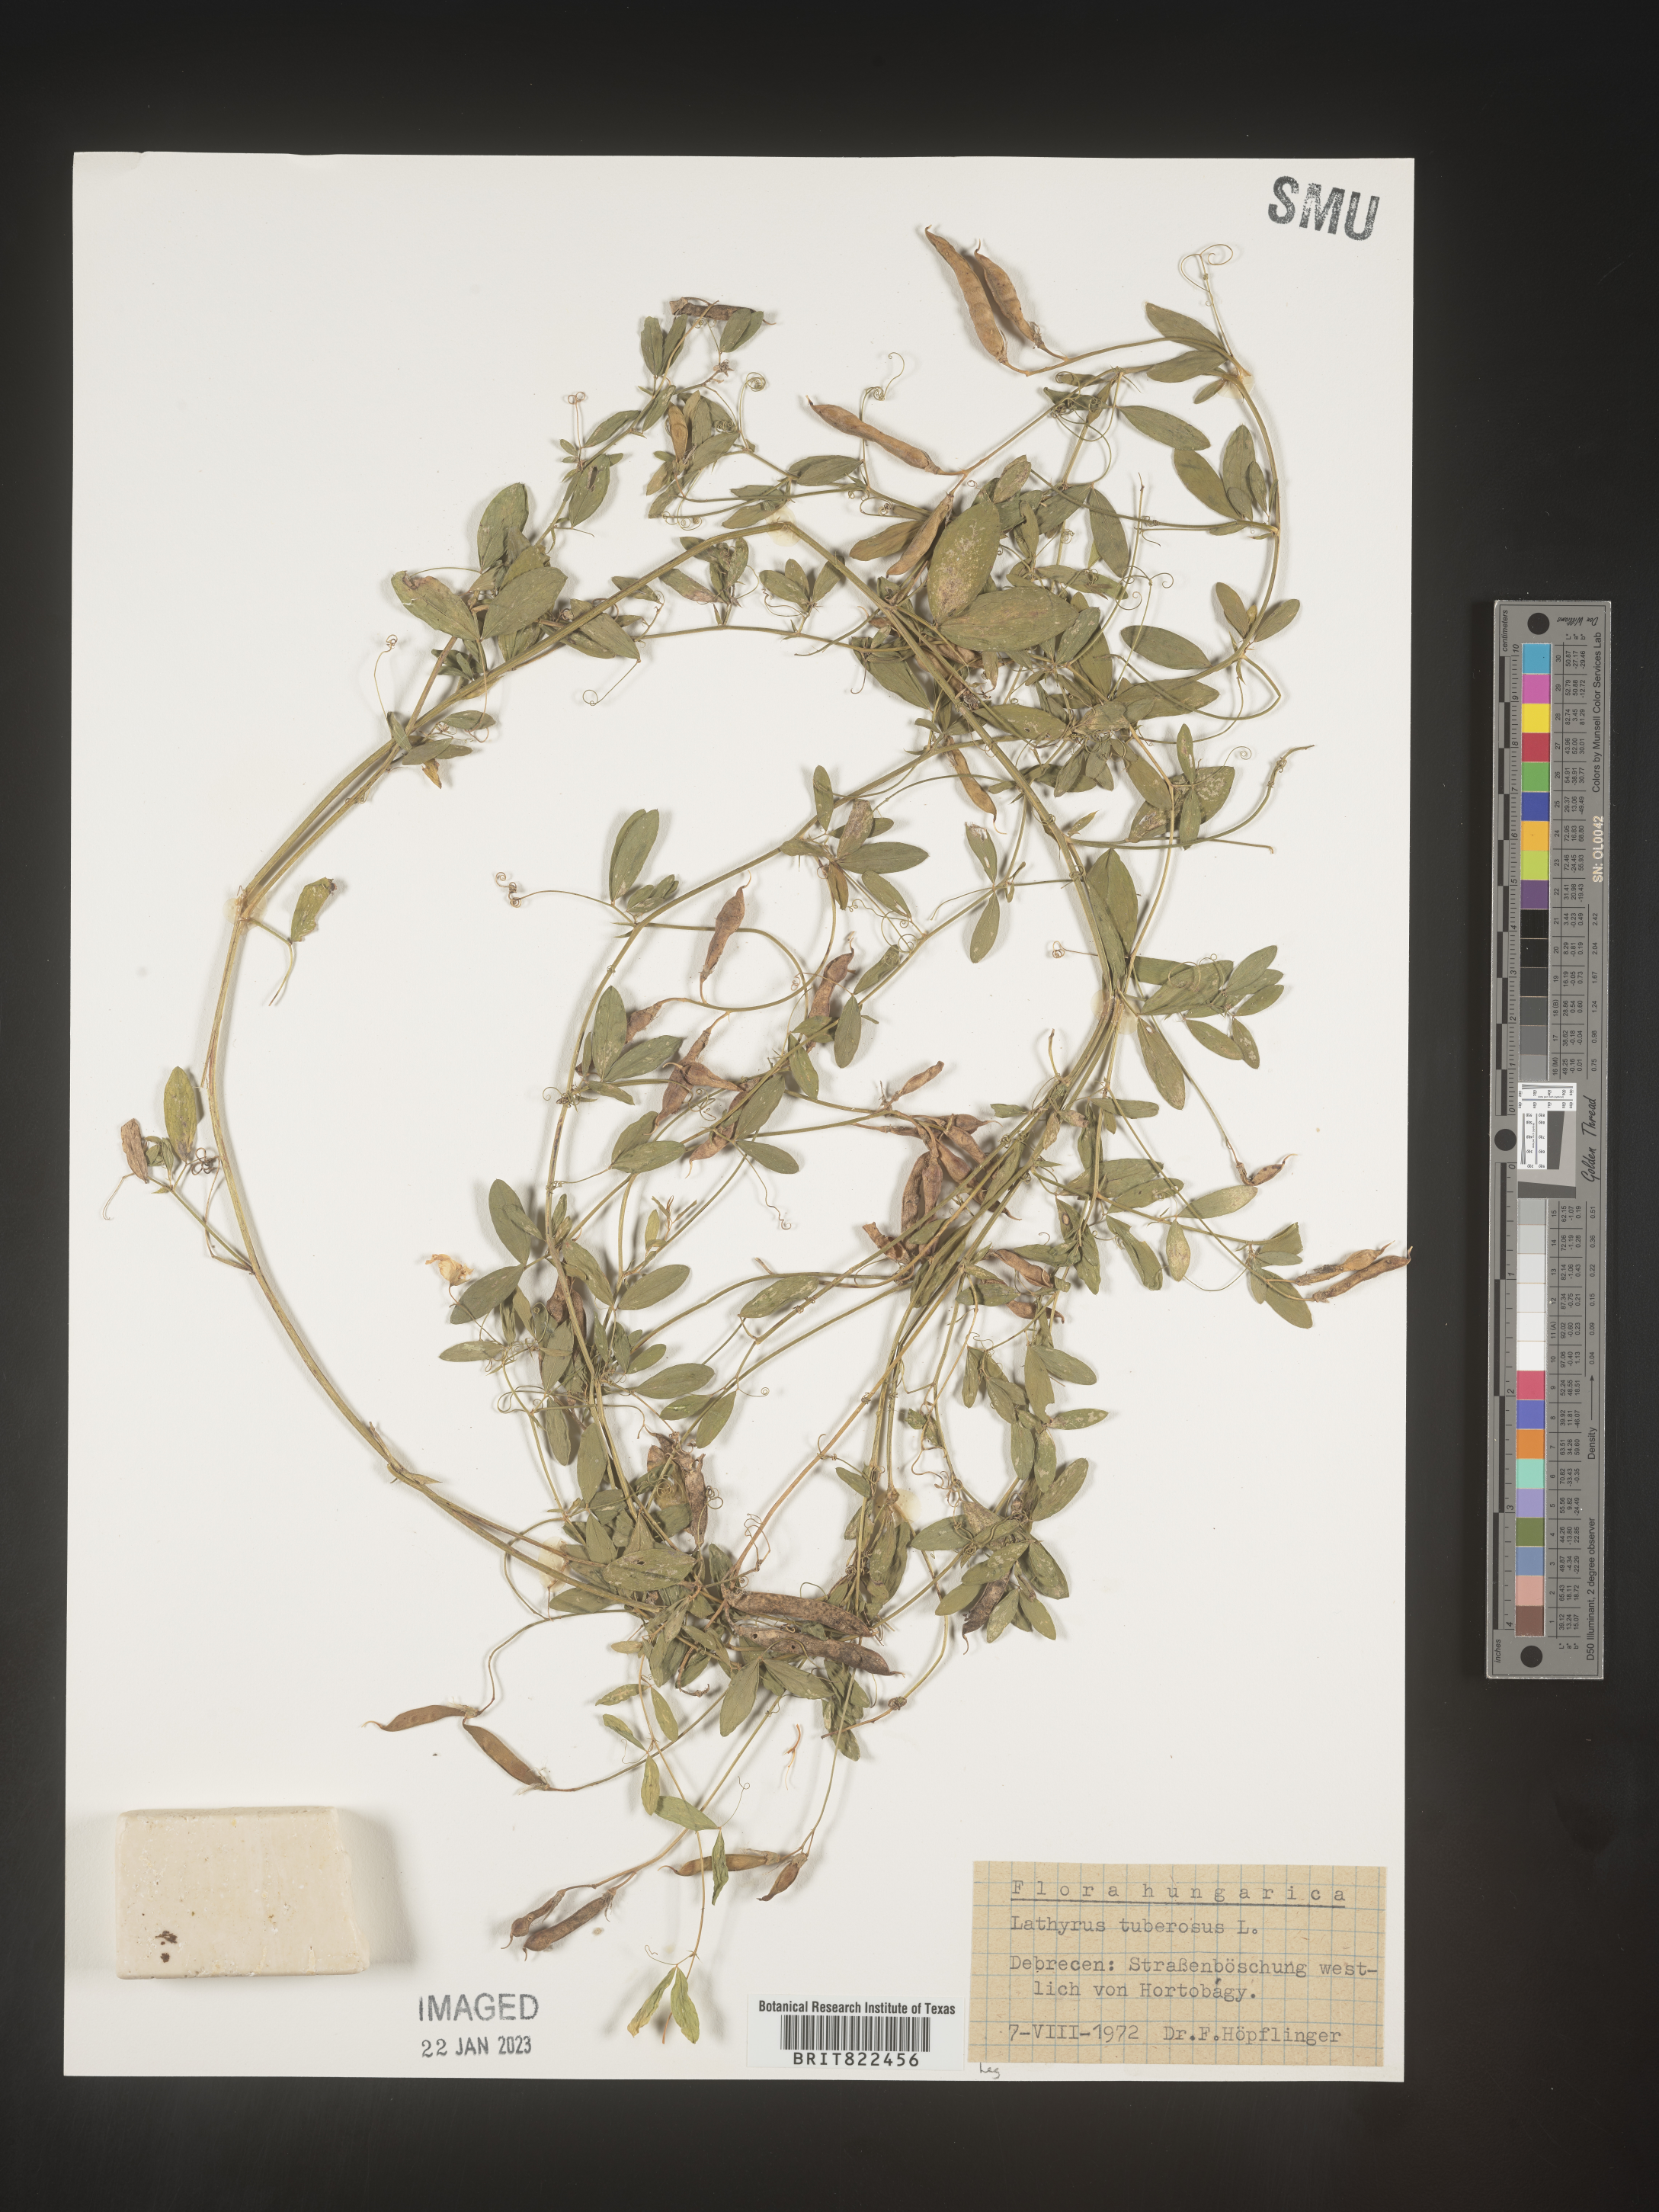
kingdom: Plantae
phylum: Tracheophyta
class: Magnoliopsida
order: Fabales
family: Fabaceae
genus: Lathyrus
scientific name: Lathyrus
